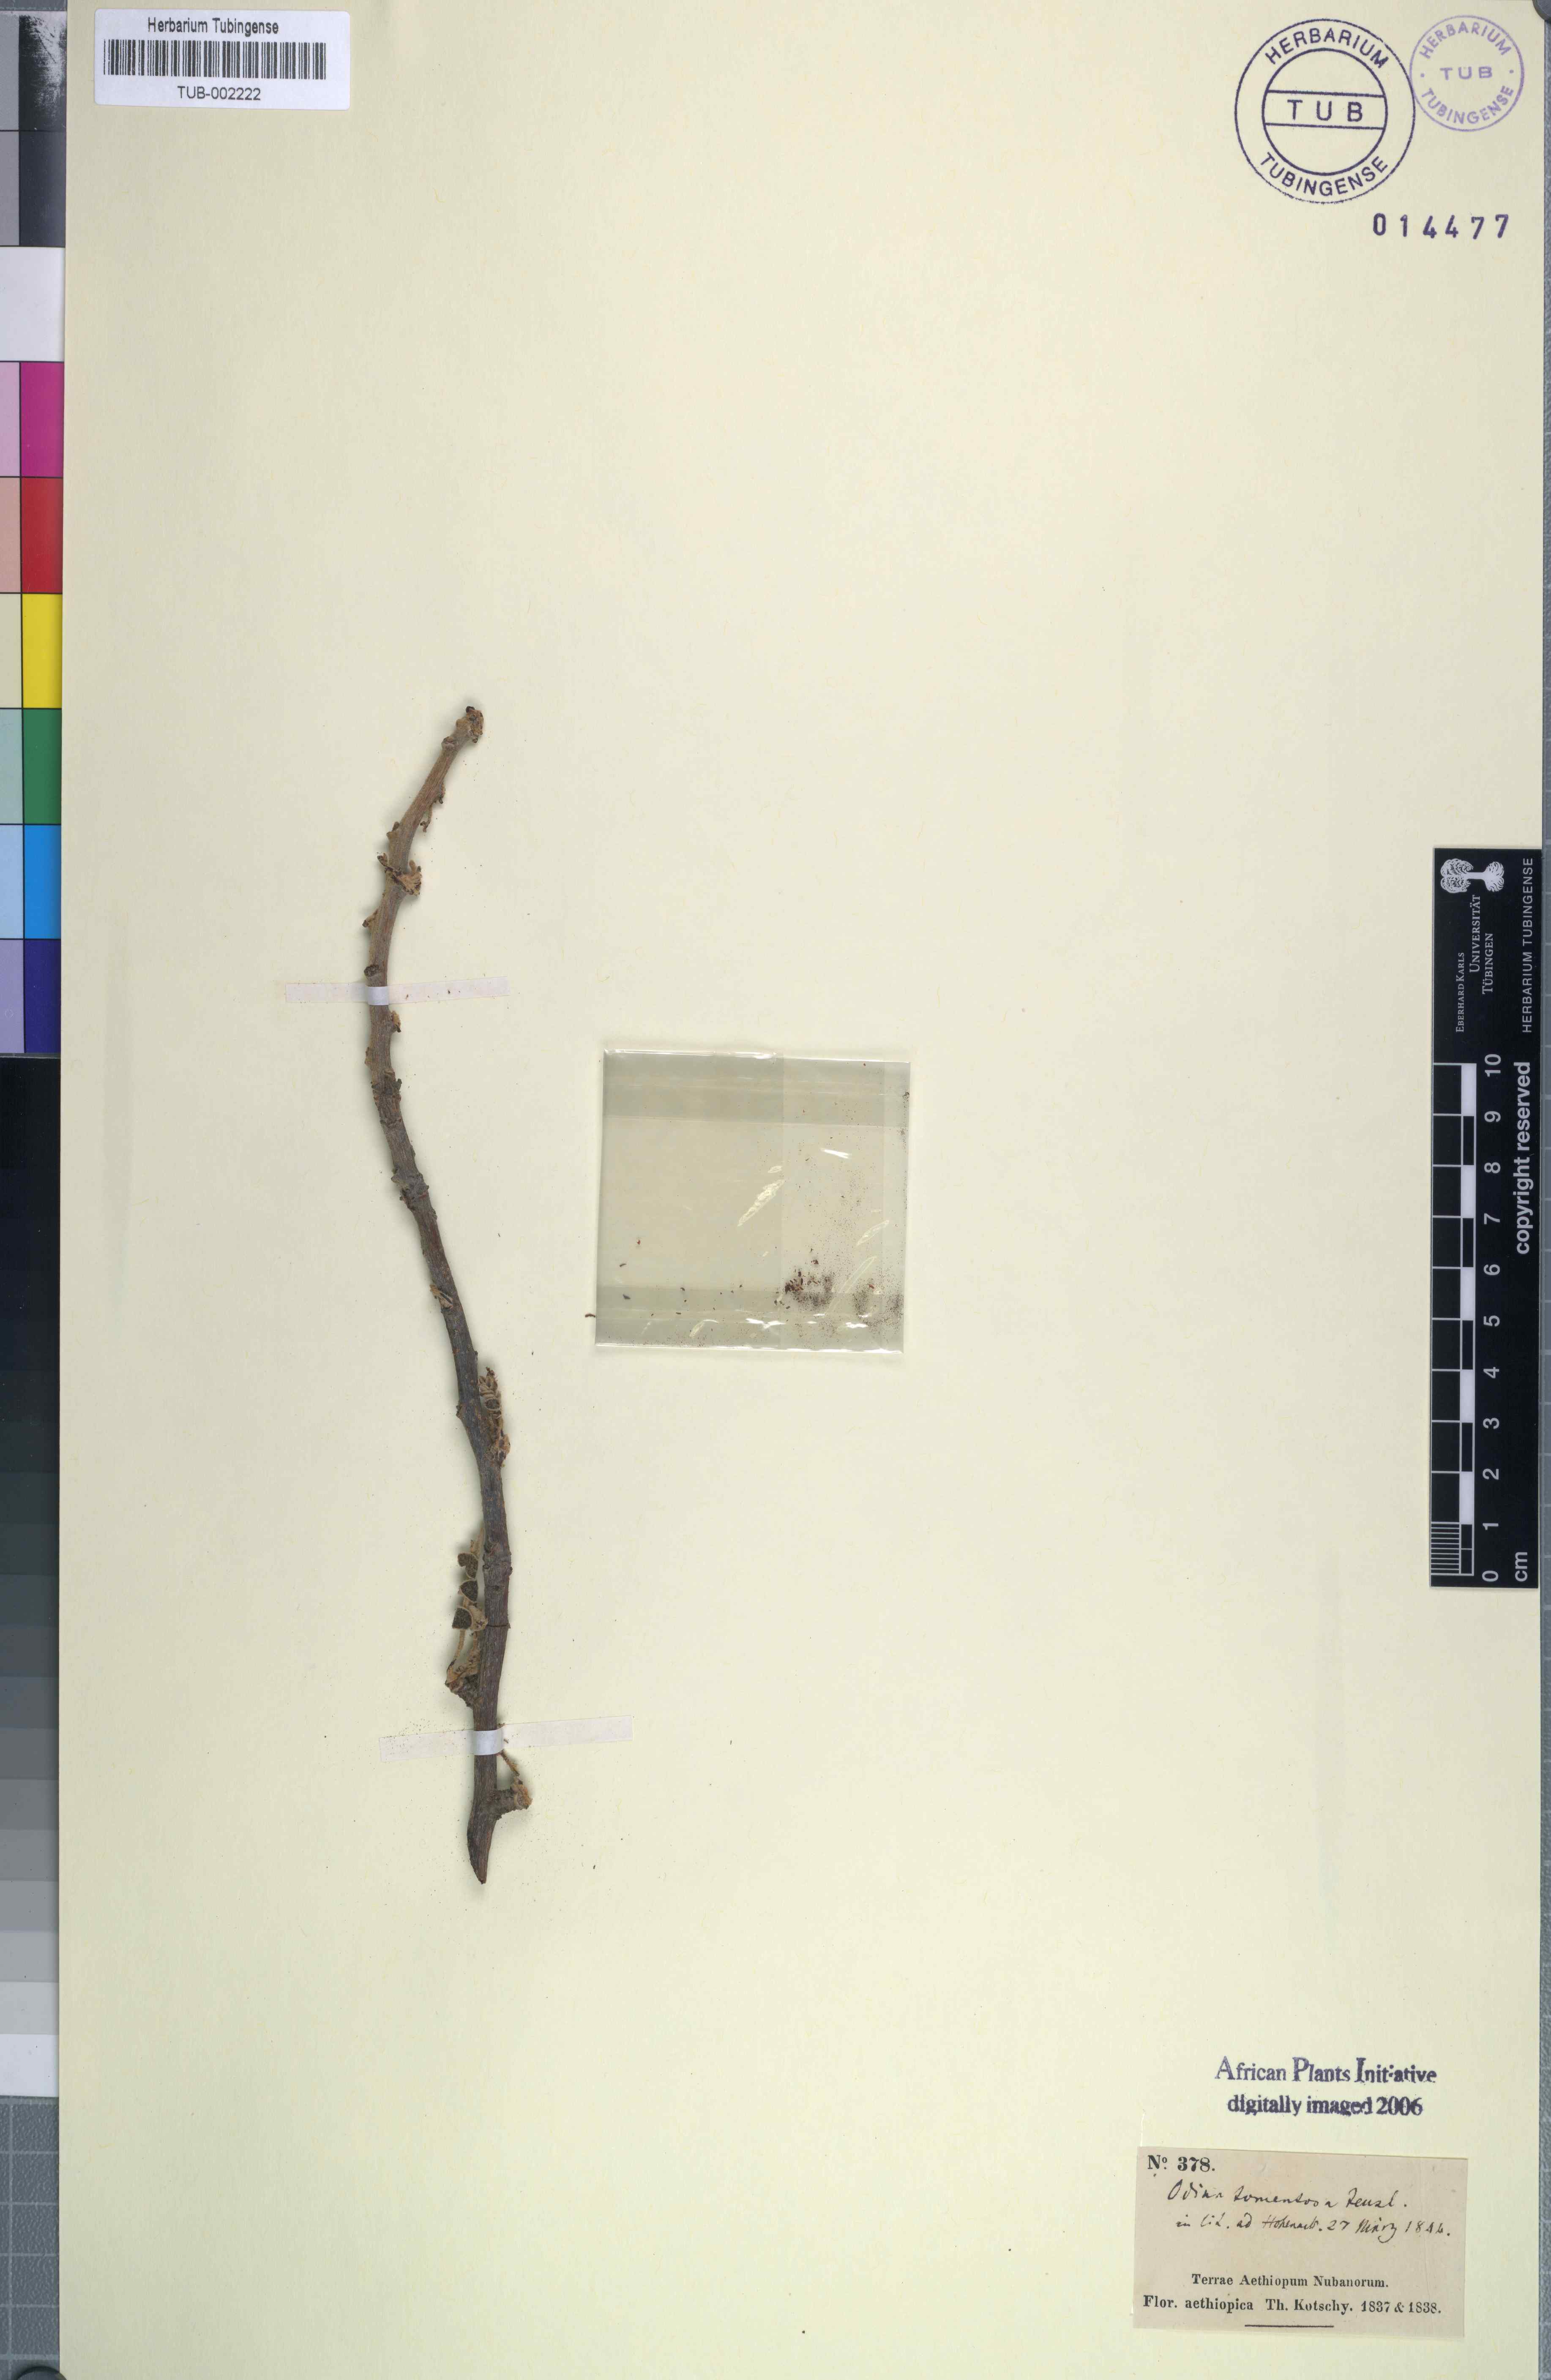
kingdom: Plantae
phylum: Tracheophyta
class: Magnoliopsida
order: Sapindales
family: Anacardiaceae
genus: Lannea
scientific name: Lannea humilis
